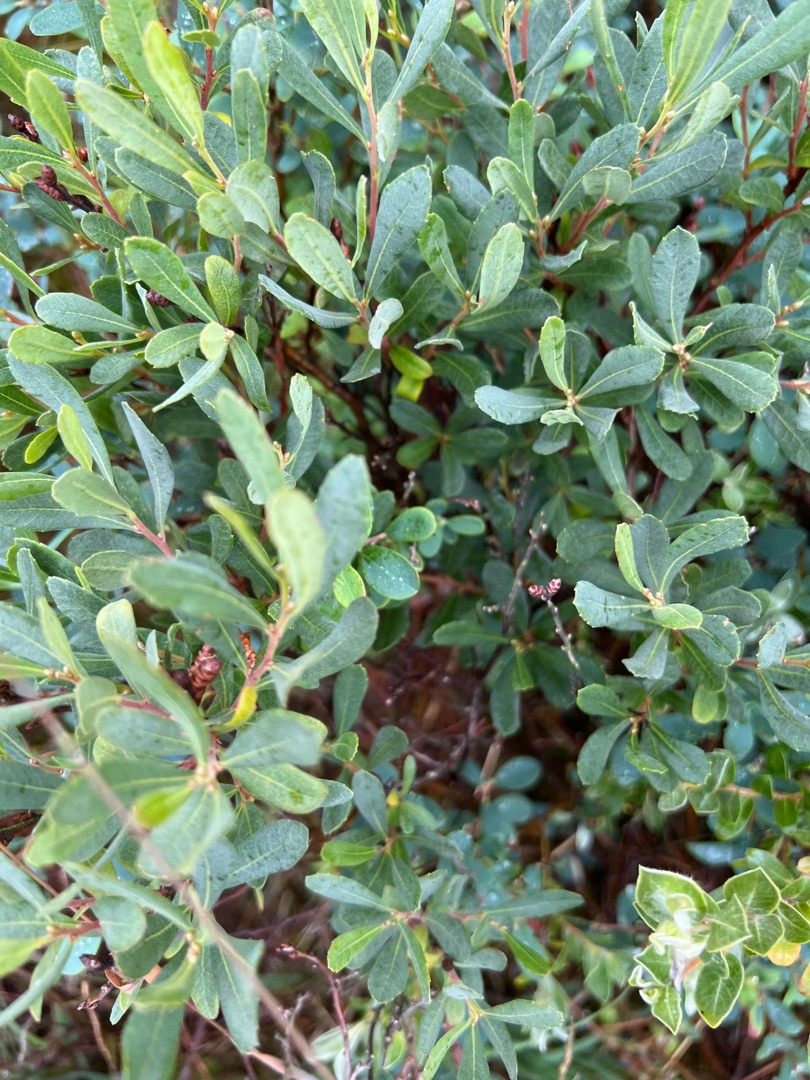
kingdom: Plantae
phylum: Tracheophyta
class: Magnoliopsida
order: Fagales
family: Myricaceae
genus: Myrica
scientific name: Myrica gale
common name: Pors
